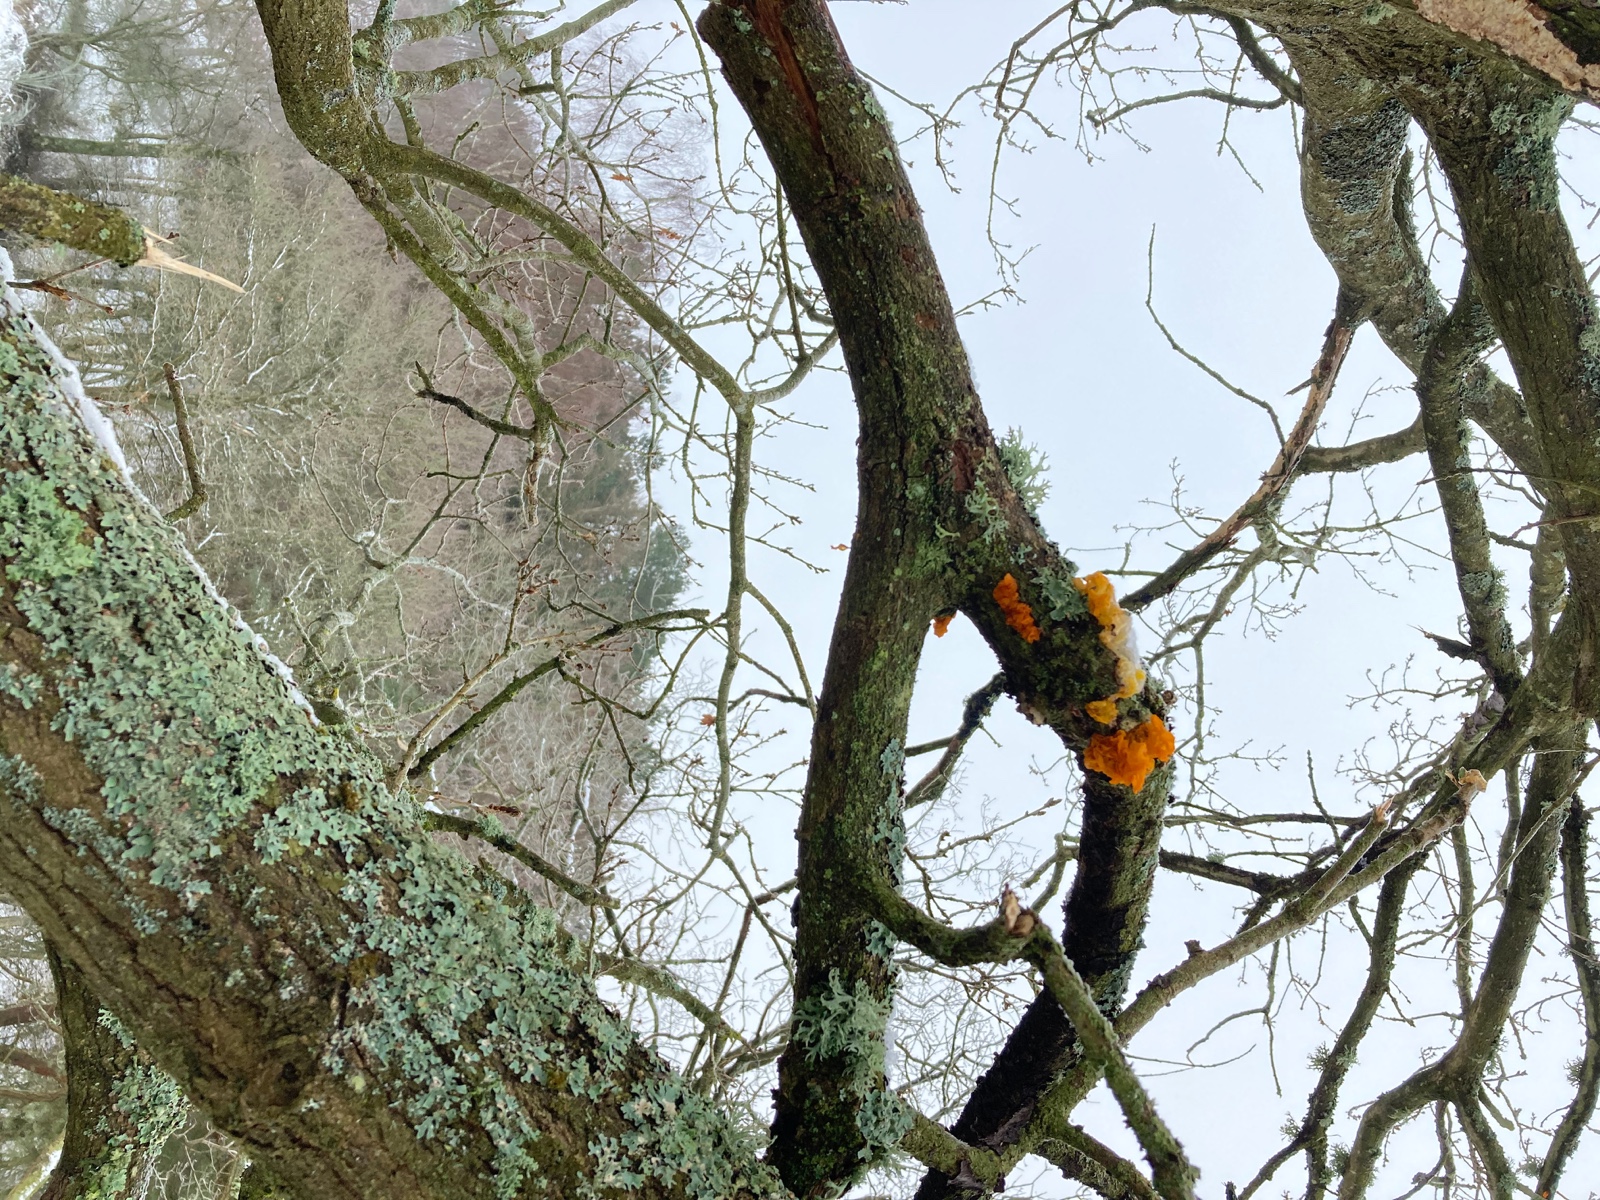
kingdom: Fungi
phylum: Basidiomycota
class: Tremellomycetes
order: Tremellales
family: Tremellaceae
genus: Tremella
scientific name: Tremella mesenterica
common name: gul bævresvamp
